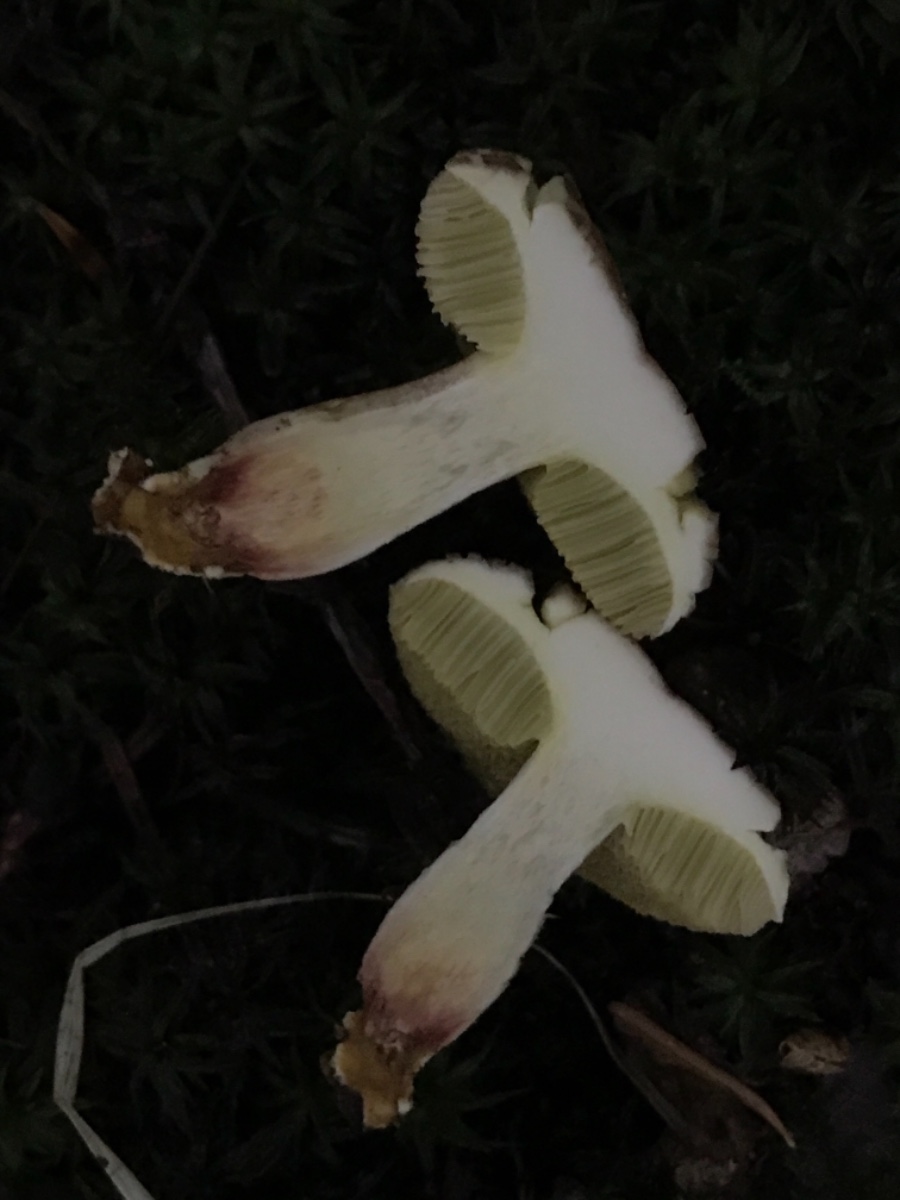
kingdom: Fungi
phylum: Basidiomycota
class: Agaricomycetes
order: Boletales
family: Boletaceae
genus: Xerocomellus
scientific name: Xerocomellus porosporus
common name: hvidsprukken rørhat
